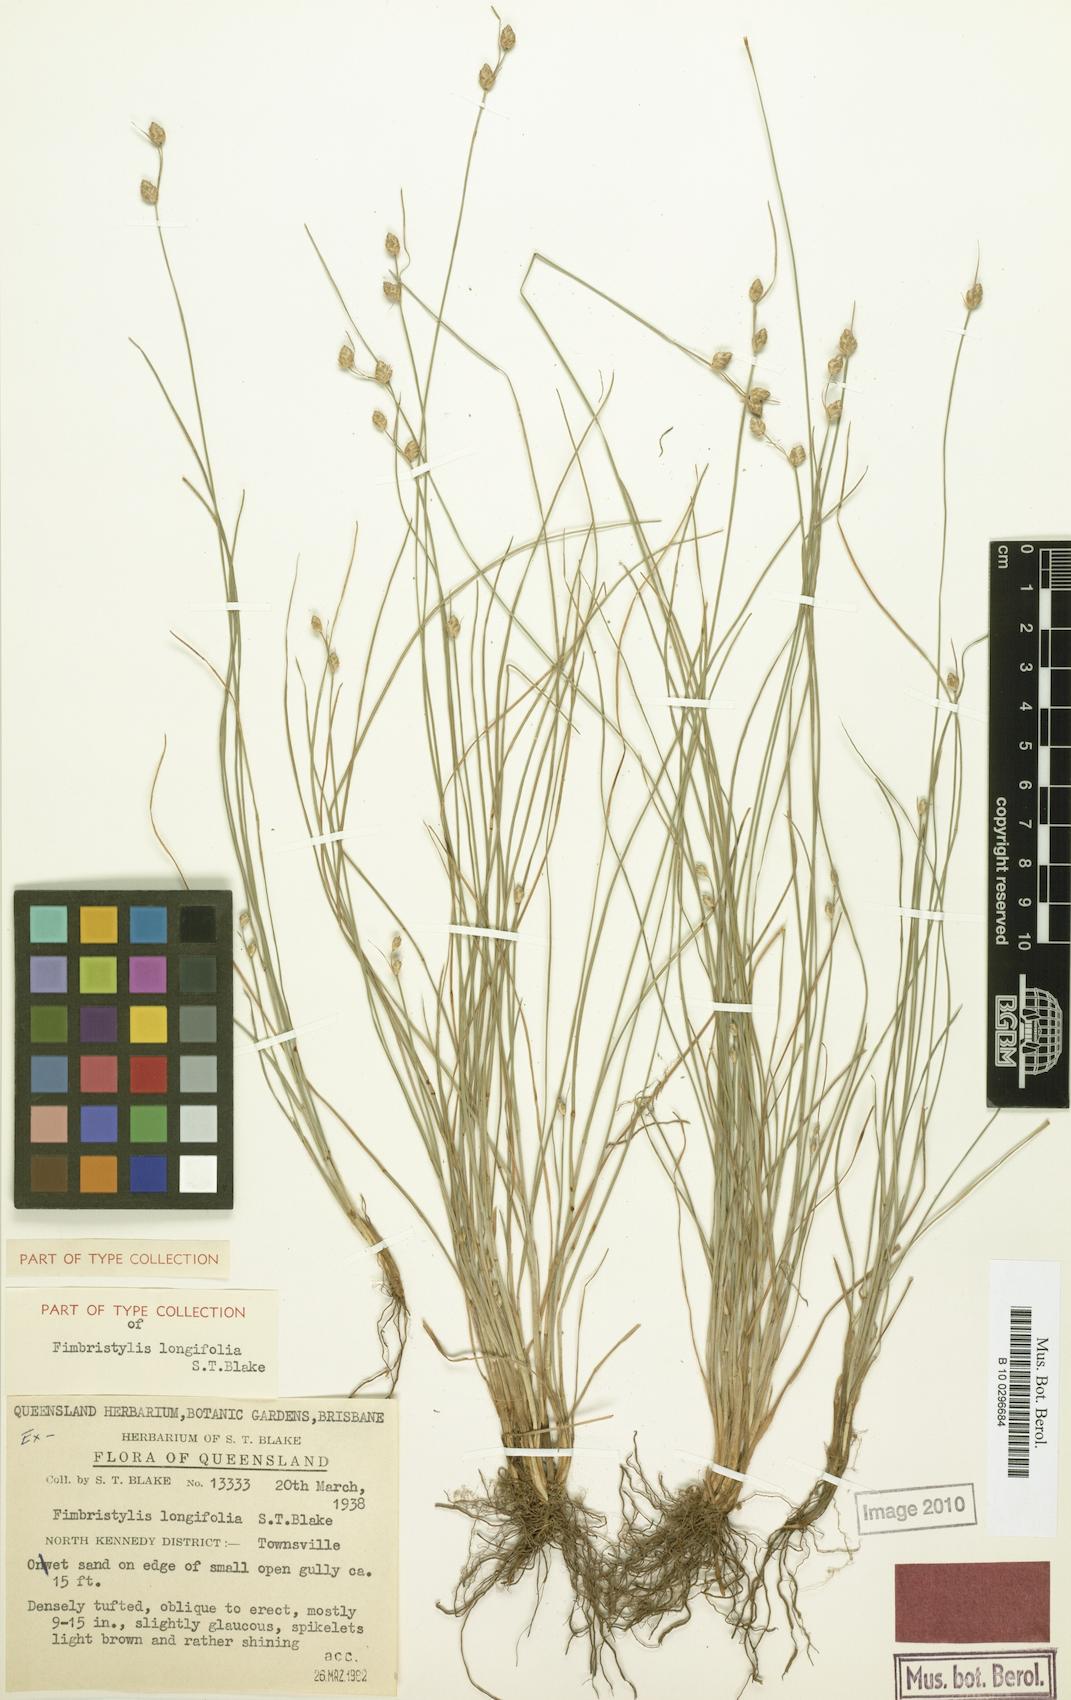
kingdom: Plantae
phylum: Tracheophyta
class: Liliopsida
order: Poales
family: Cyperaceae
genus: Fimbristylis
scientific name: Fimbristylis schoenoides
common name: Ditch fimbry
